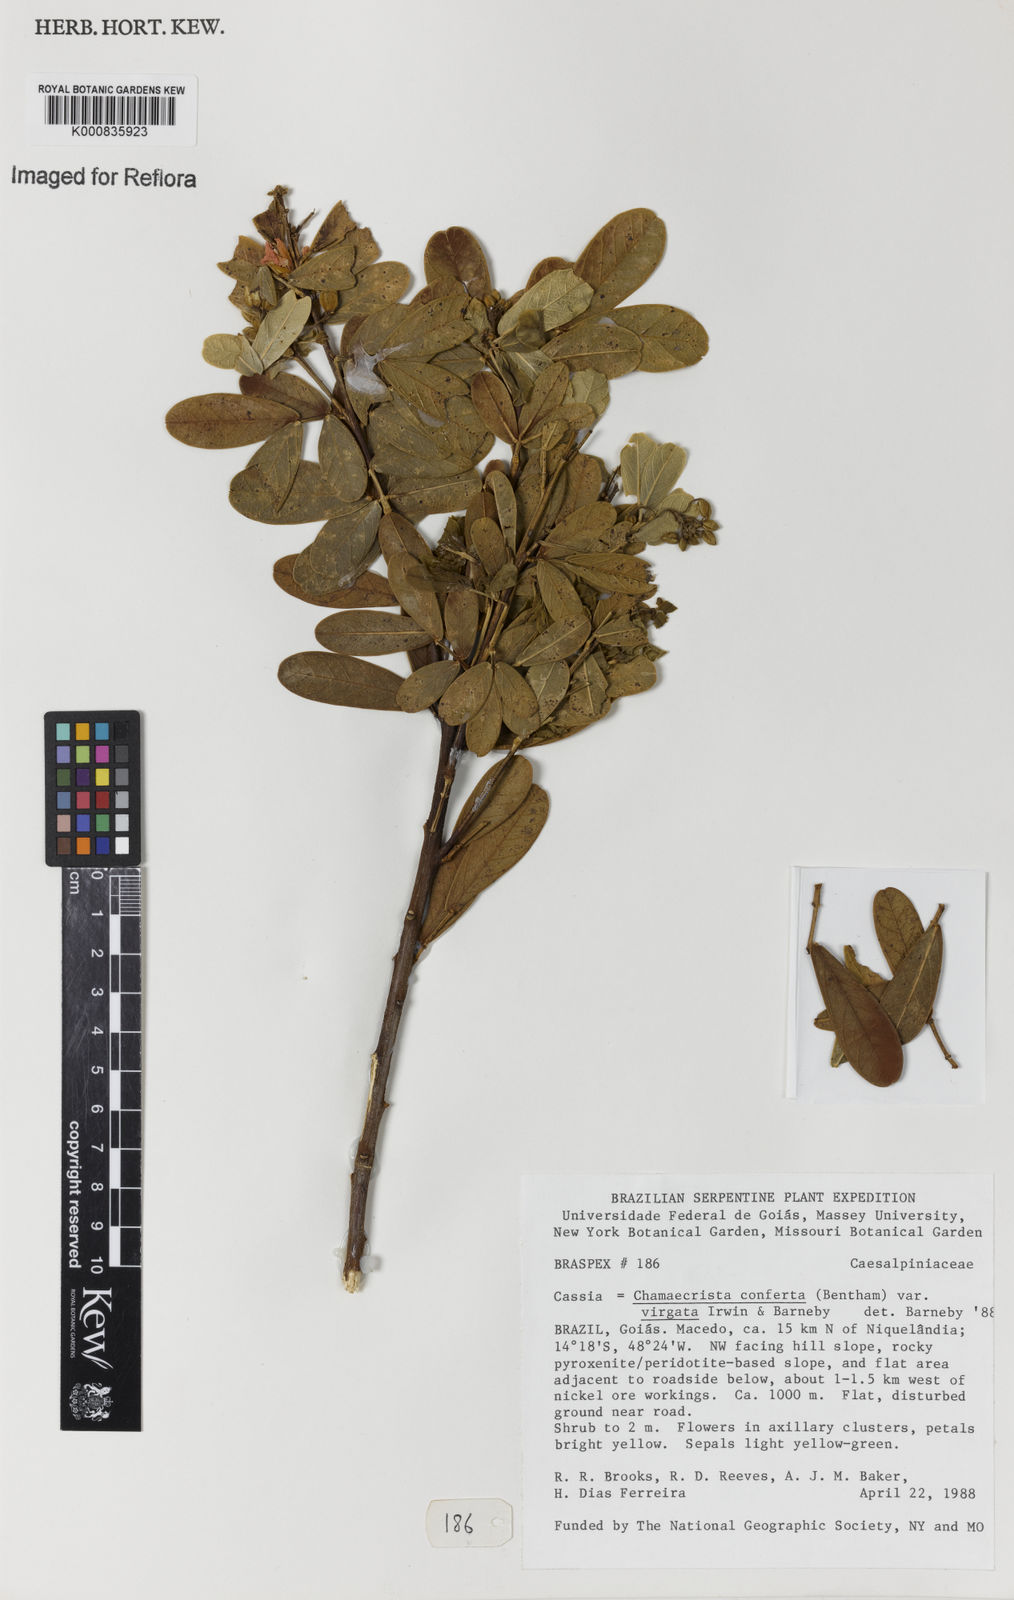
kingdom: Plantae
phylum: Tracheophyta
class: Magnoliopsida
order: Fabales
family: Fabaceae
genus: Chamaecrista
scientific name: Chamaecrista conferta
